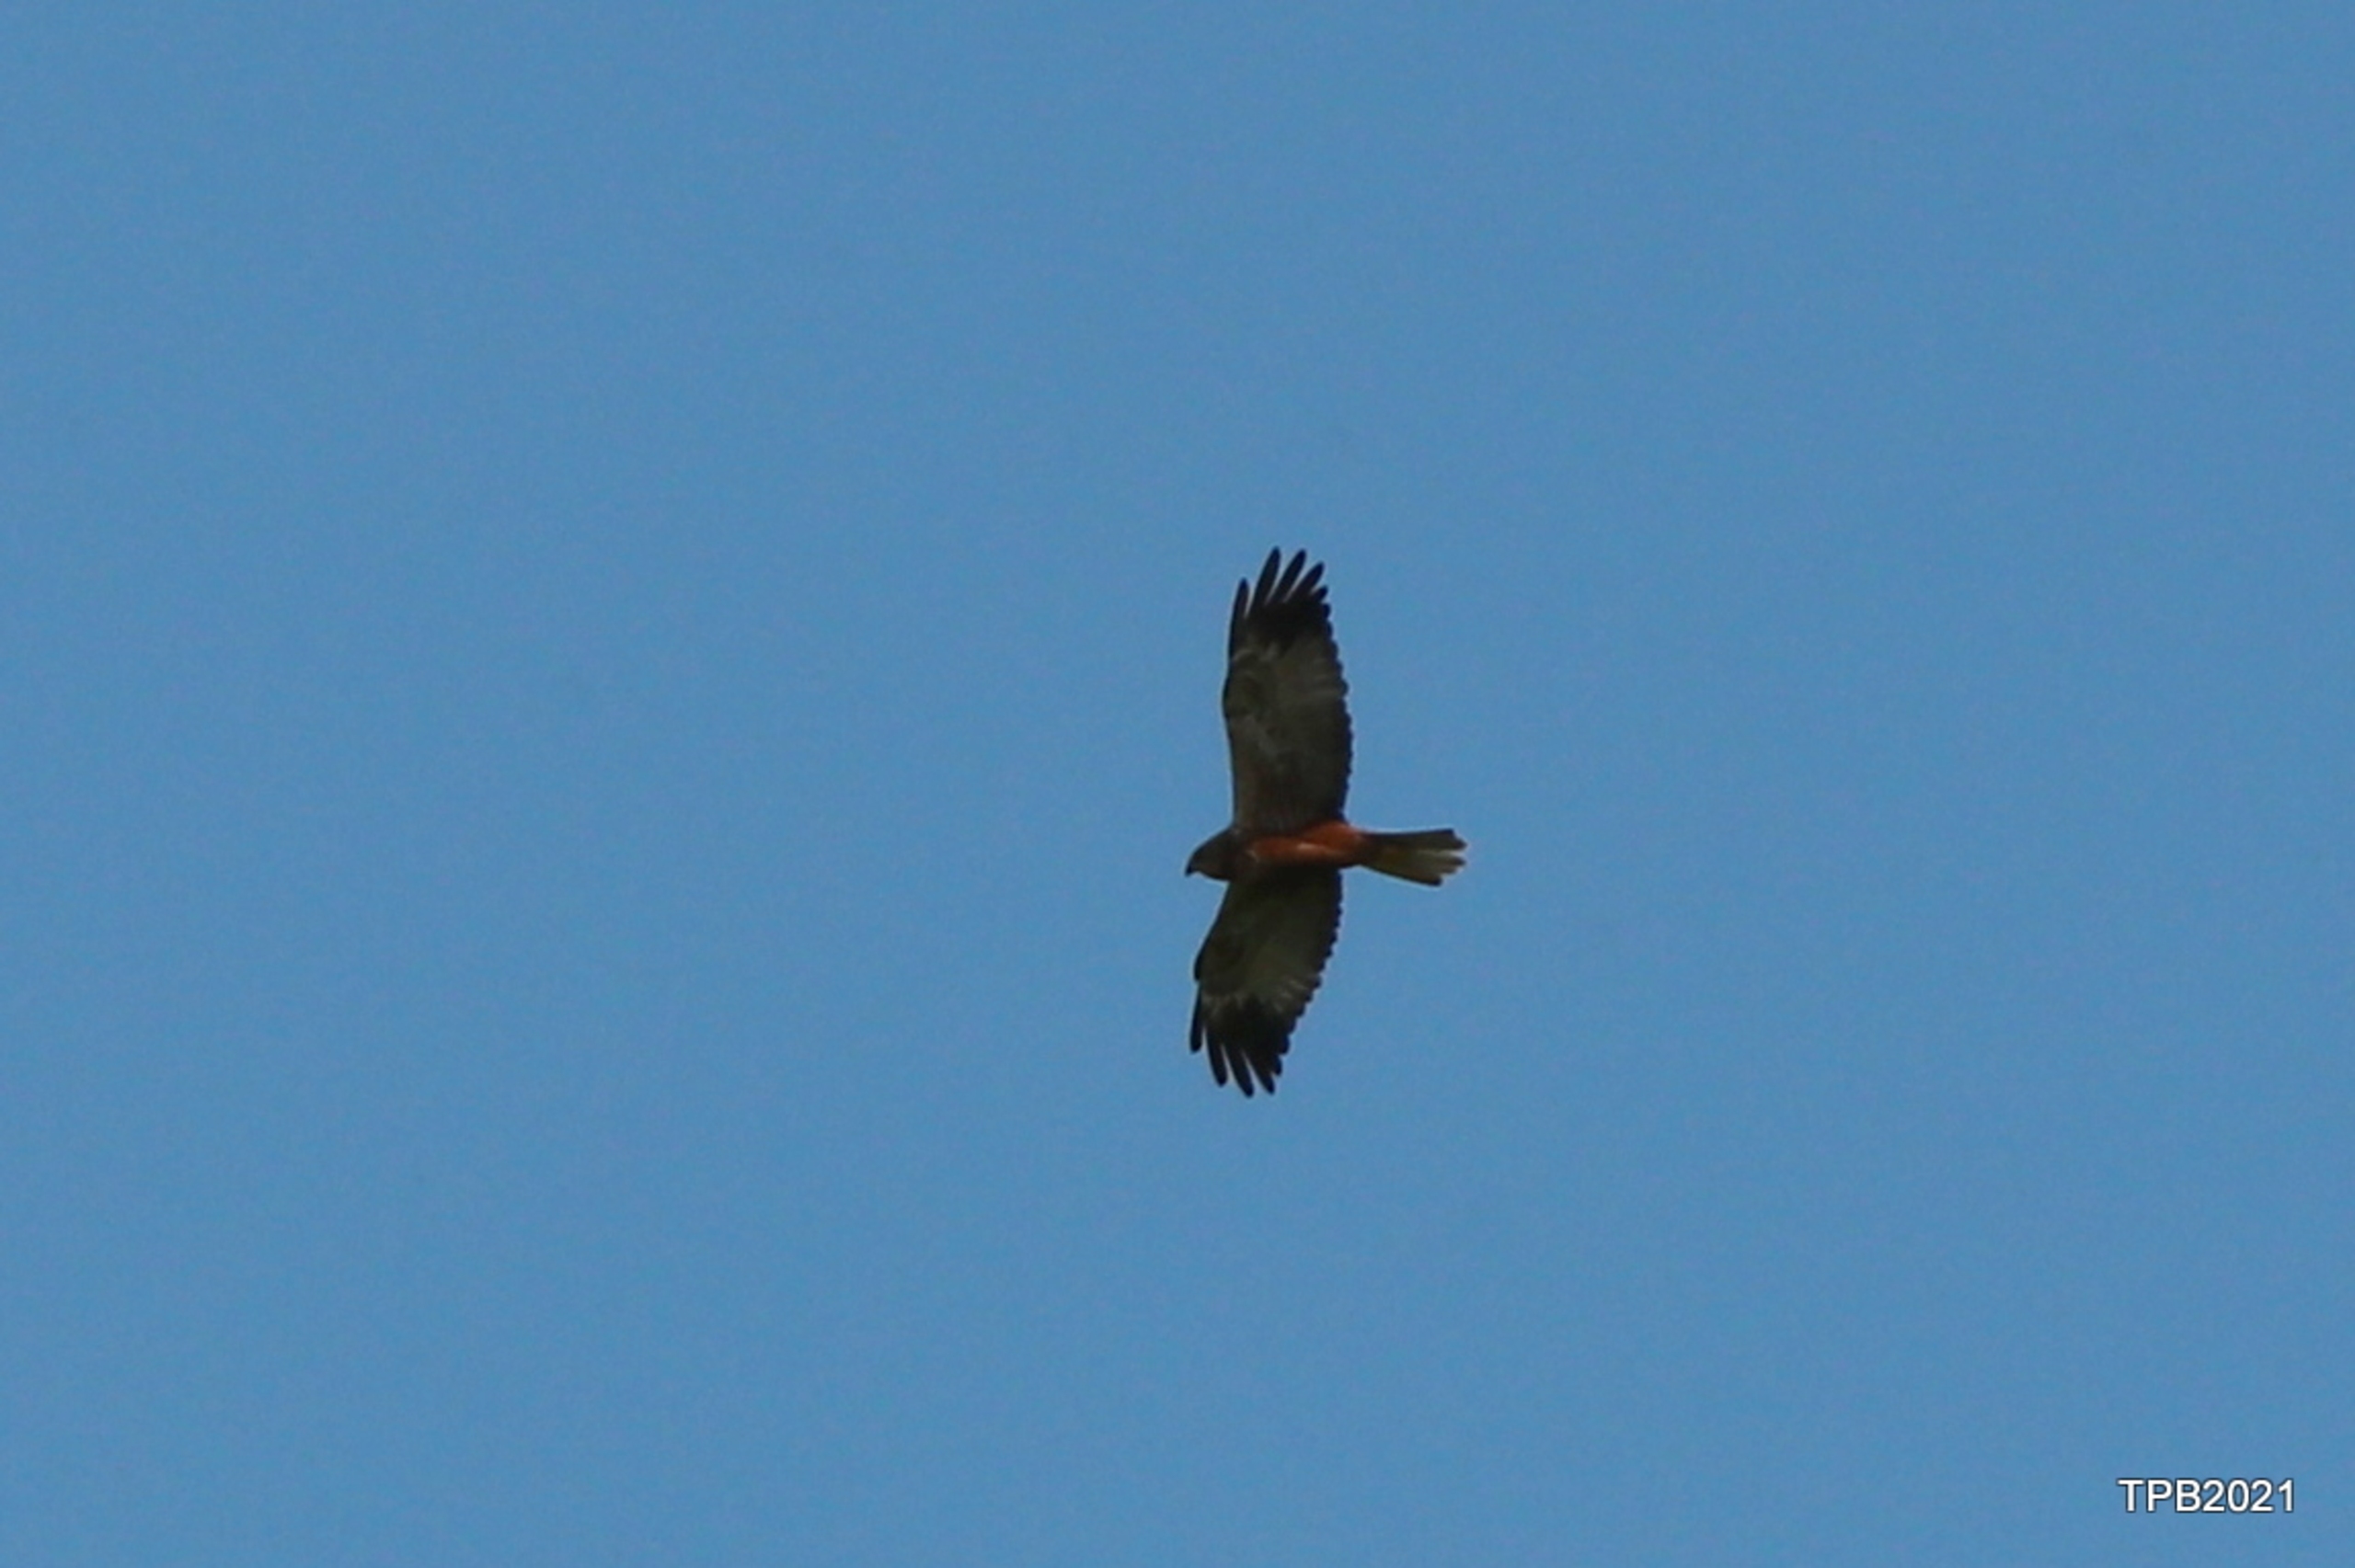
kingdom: Animalia
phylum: Chordata
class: Aves
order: Accipitriformes
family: Accipitridae
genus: Circus
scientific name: Circus aeruginosus
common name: Rørhøg
